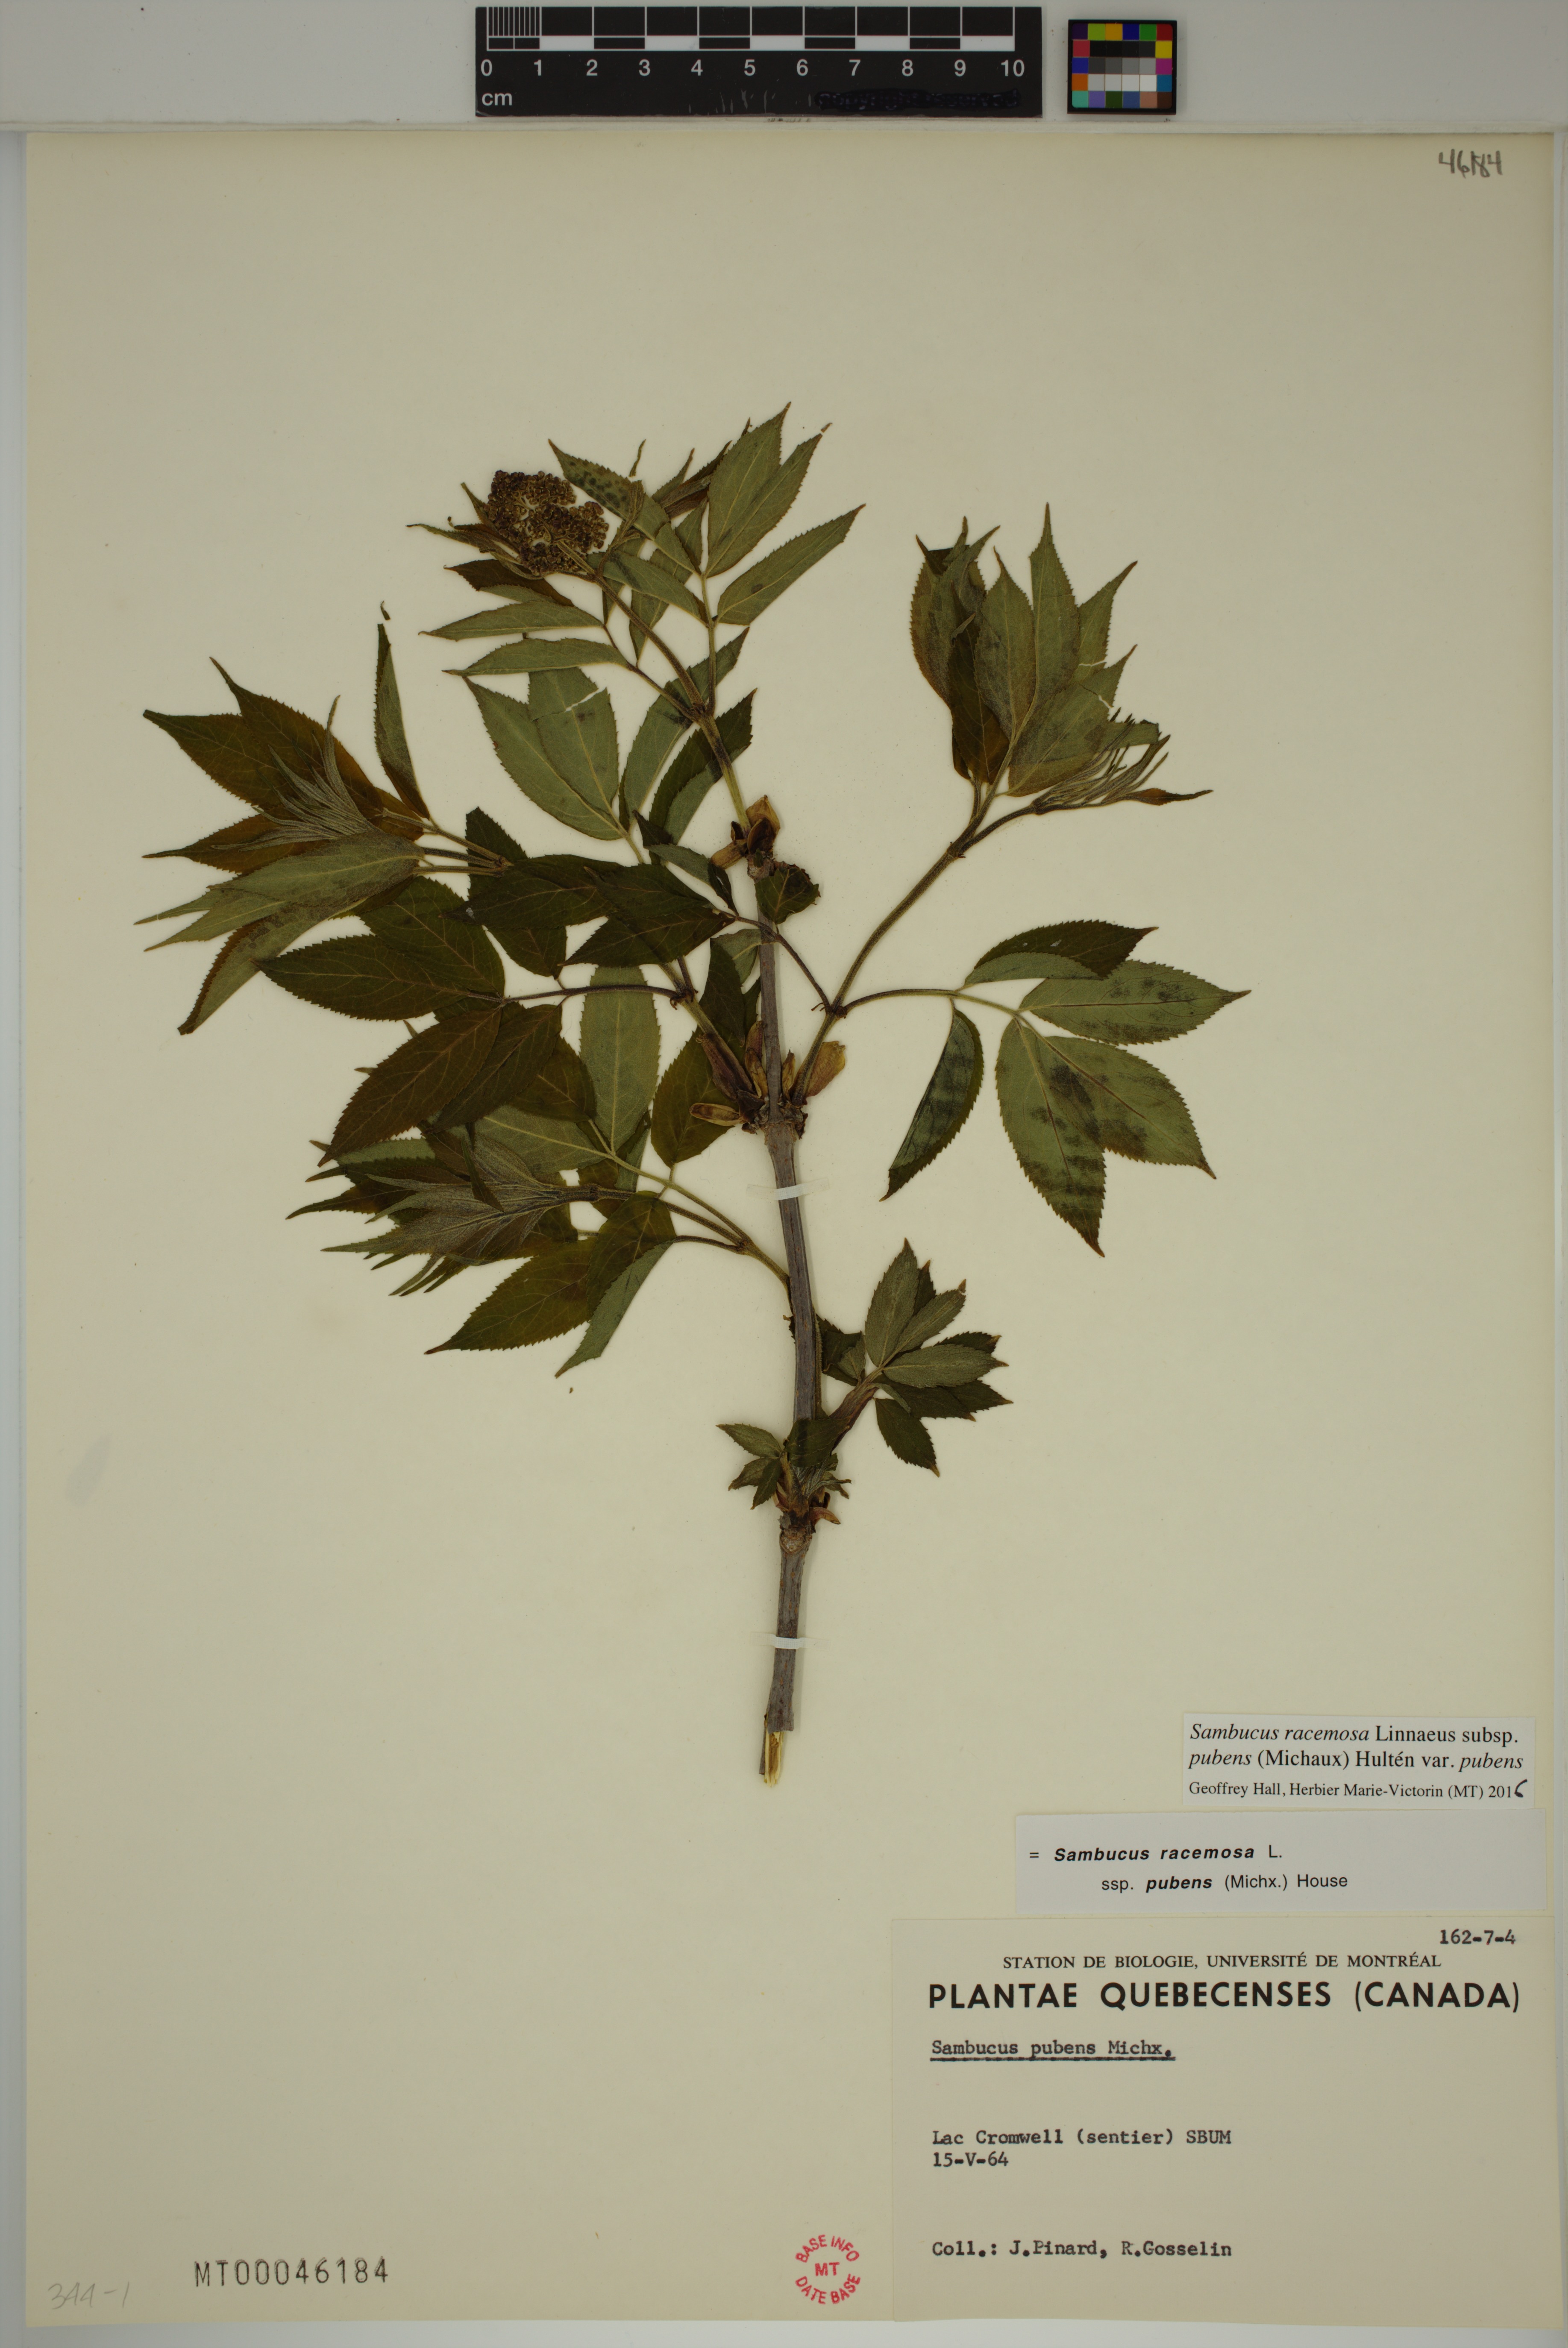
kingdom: Plantae
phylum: Tracheophyta
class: Magnoliopsida
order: Dipsacales
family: Viburnaceae
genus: Sambucus
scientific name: Sambucus racemosa
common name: Red-berried elder
